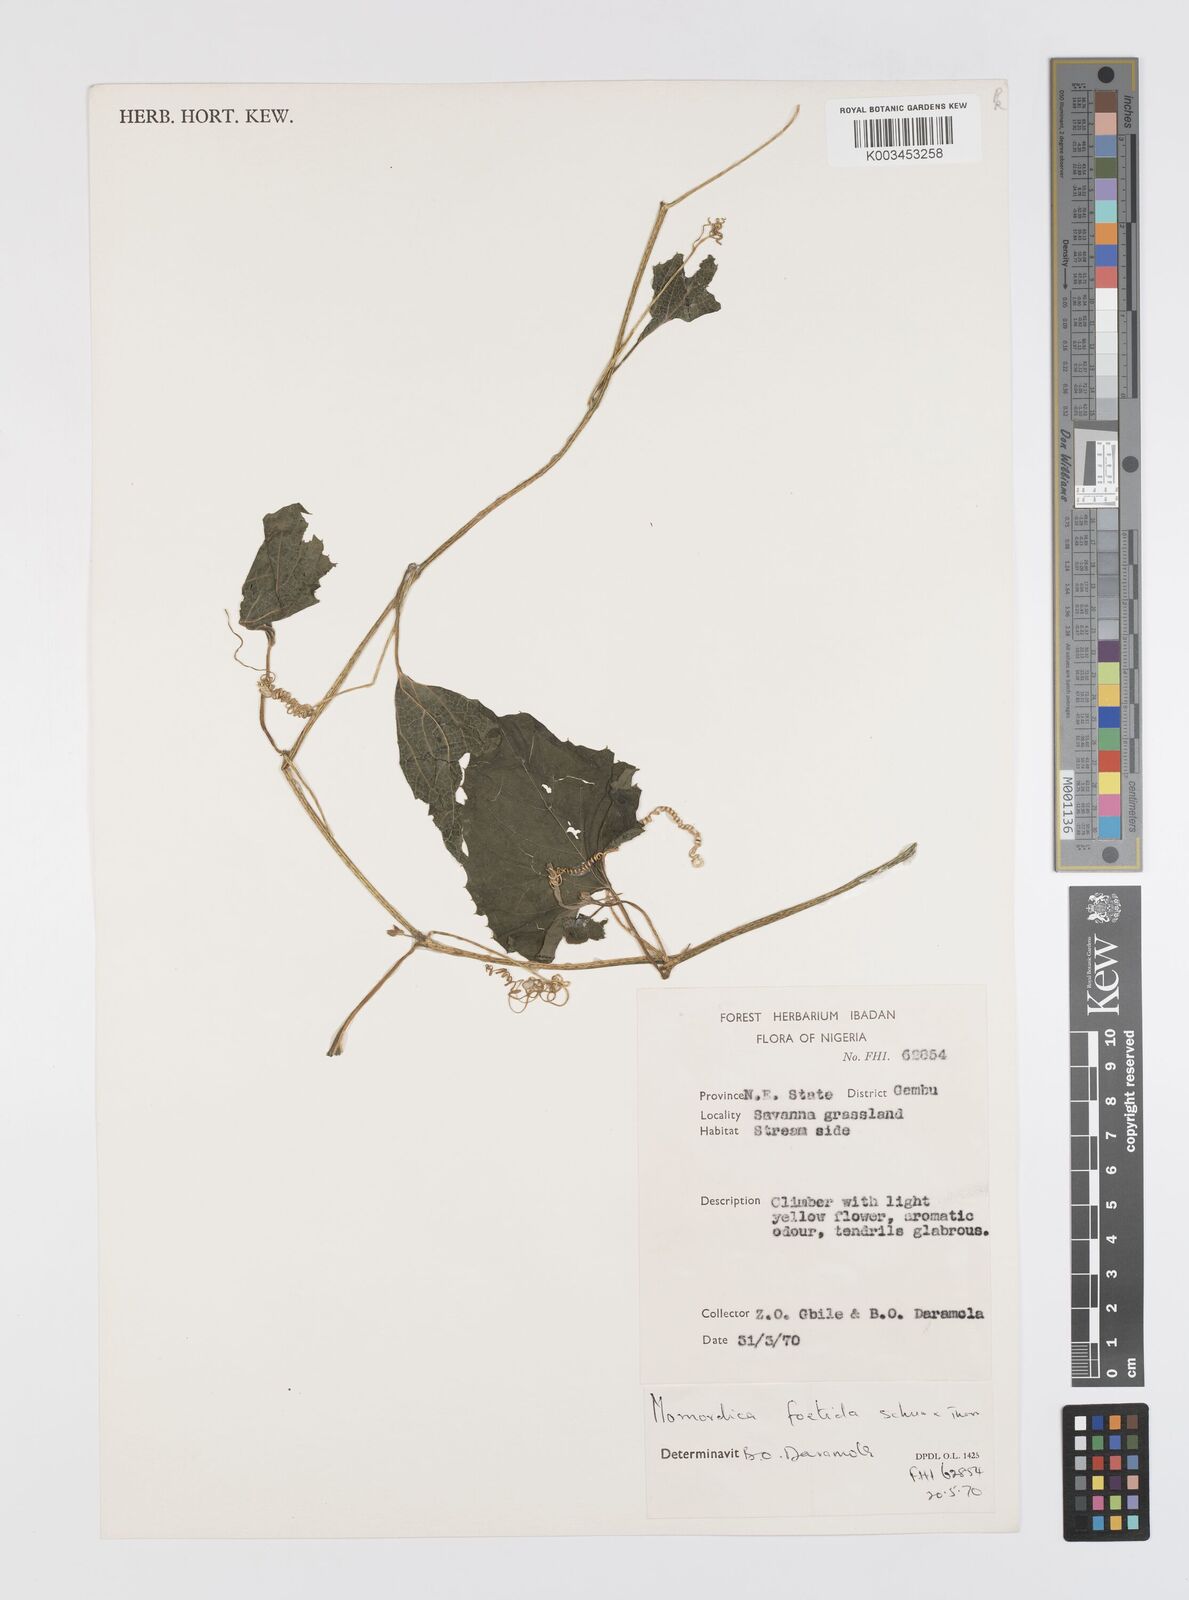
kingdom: Plantae
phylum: Tracheophyta
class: Magnoliopsida
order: Cucurbitales
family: Cucurbitaceae
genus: Momordica
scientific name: Momordica foetida
